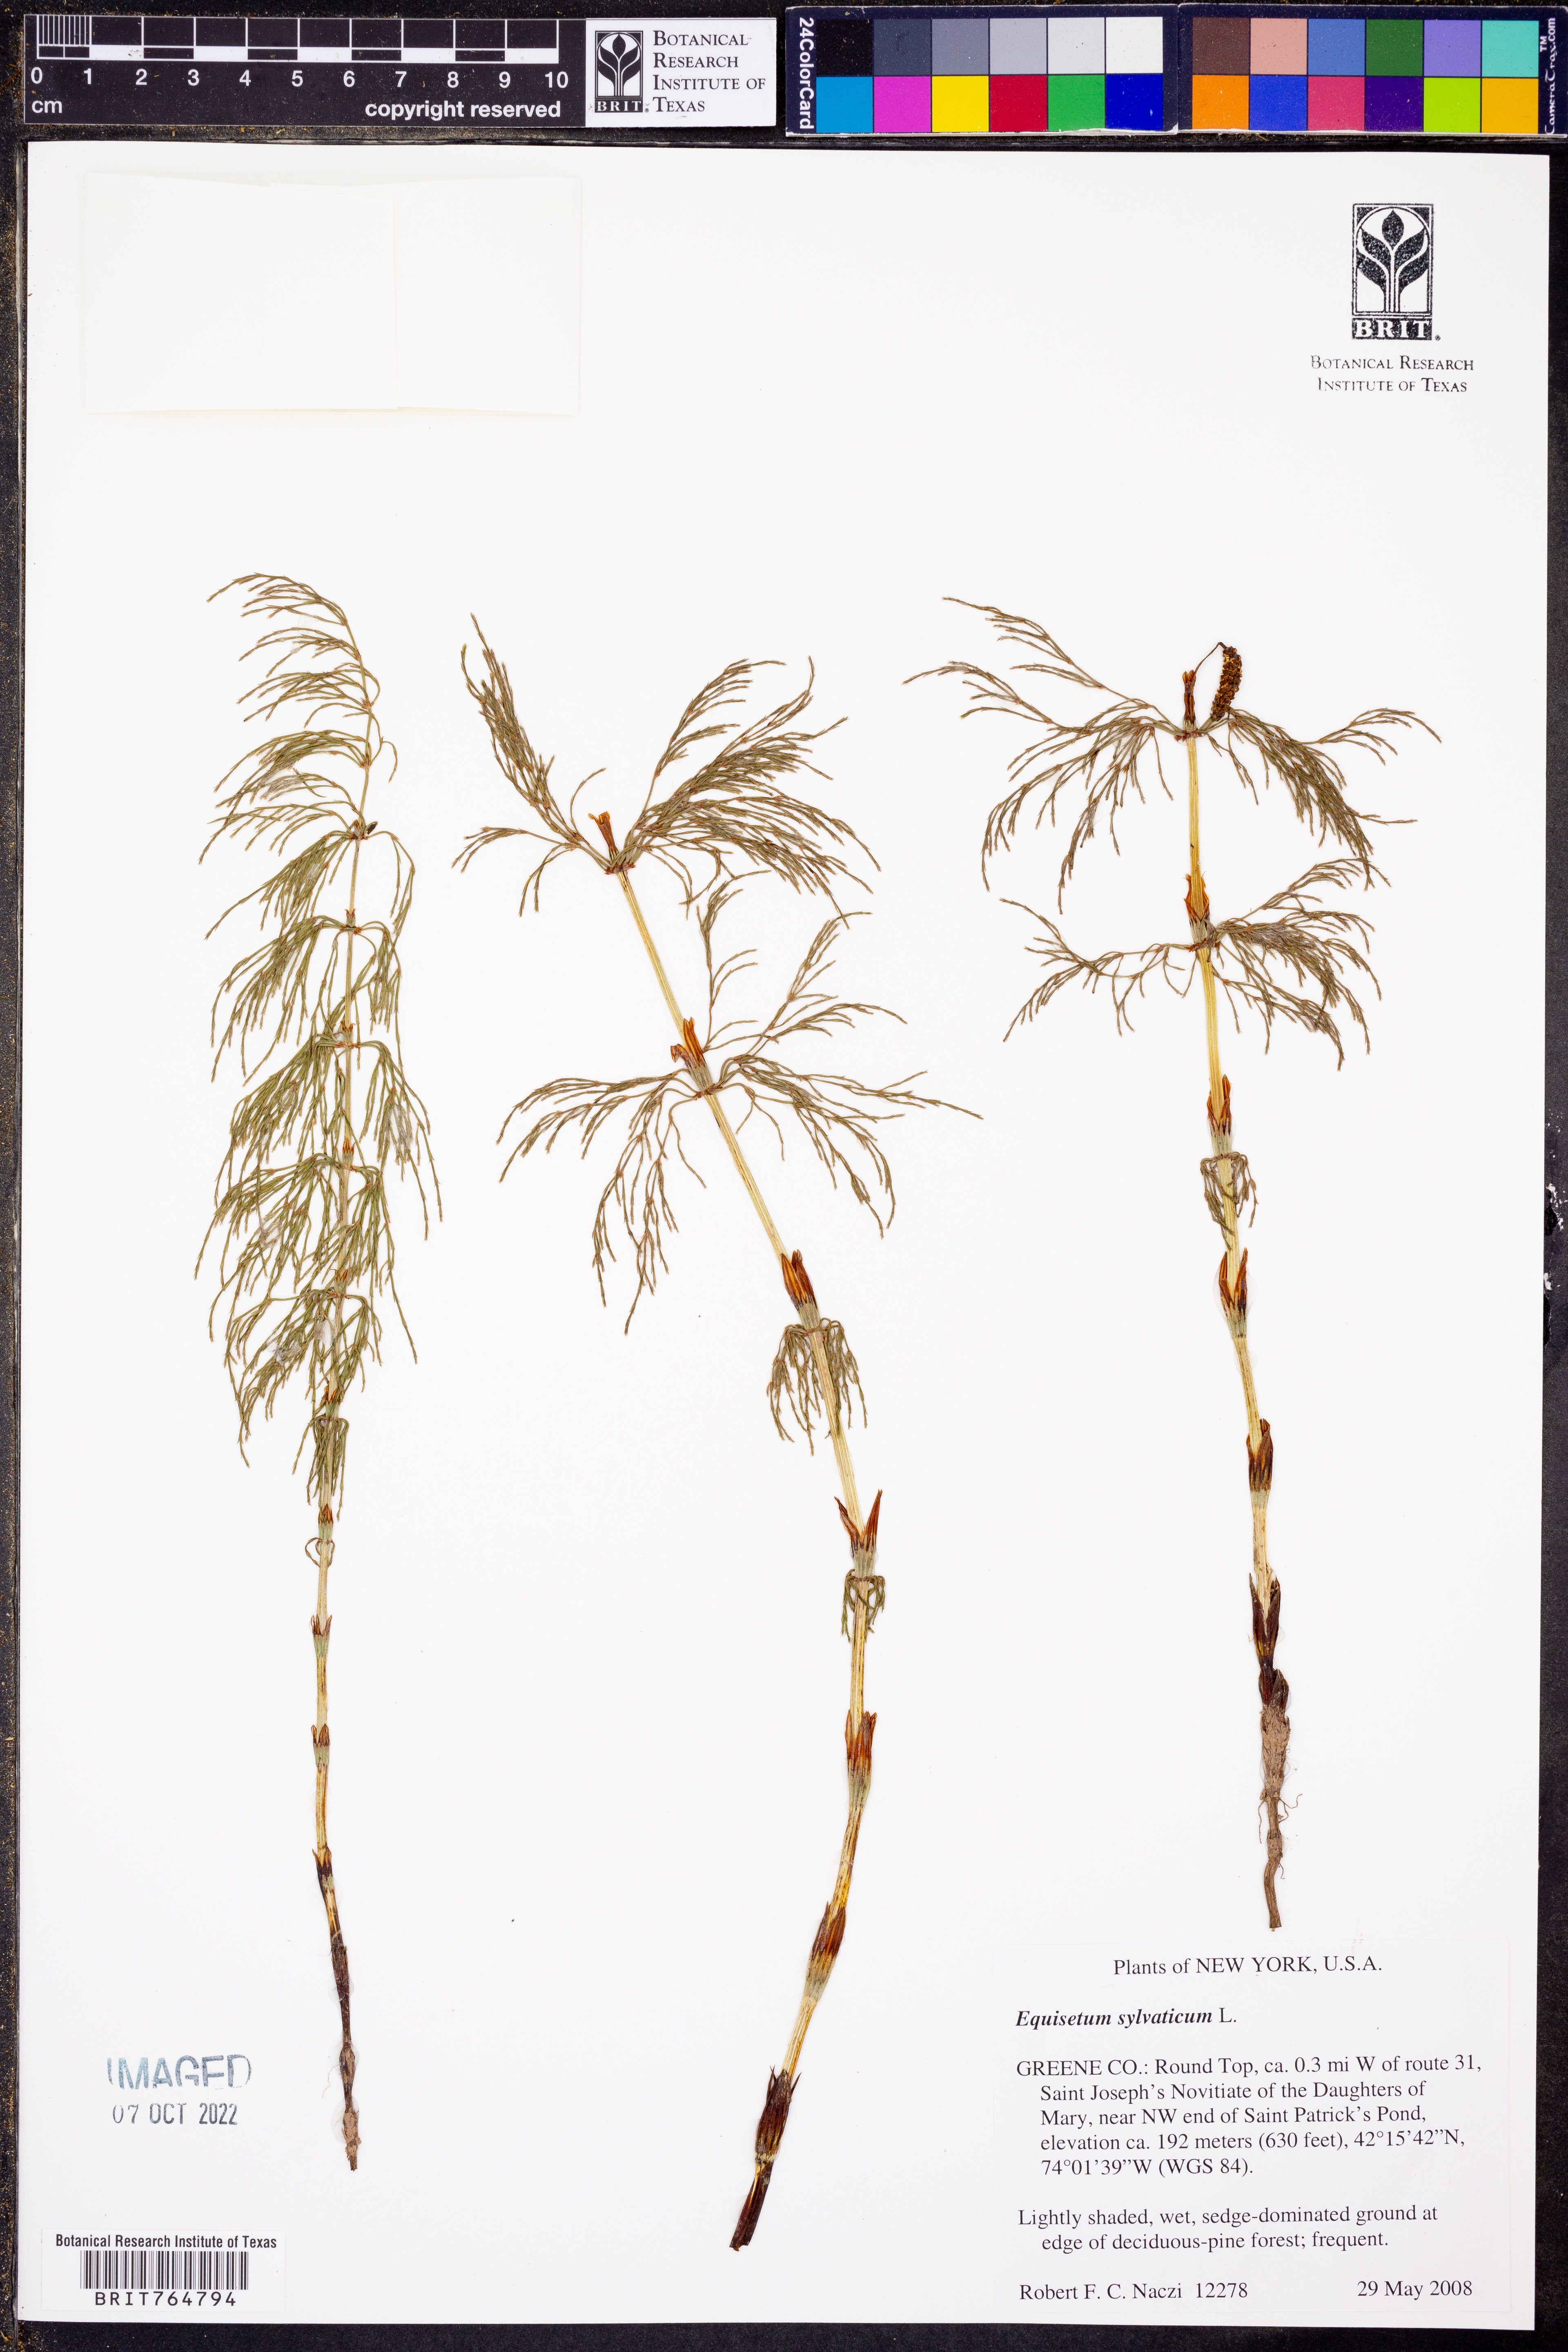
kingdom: Plantae
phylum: Tracheophyta
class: Polypodiopsida
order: Equisetales
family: Equisetaceae
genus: Equisetum
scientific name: Equisetum sylvaticum
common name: Wood horsetail
